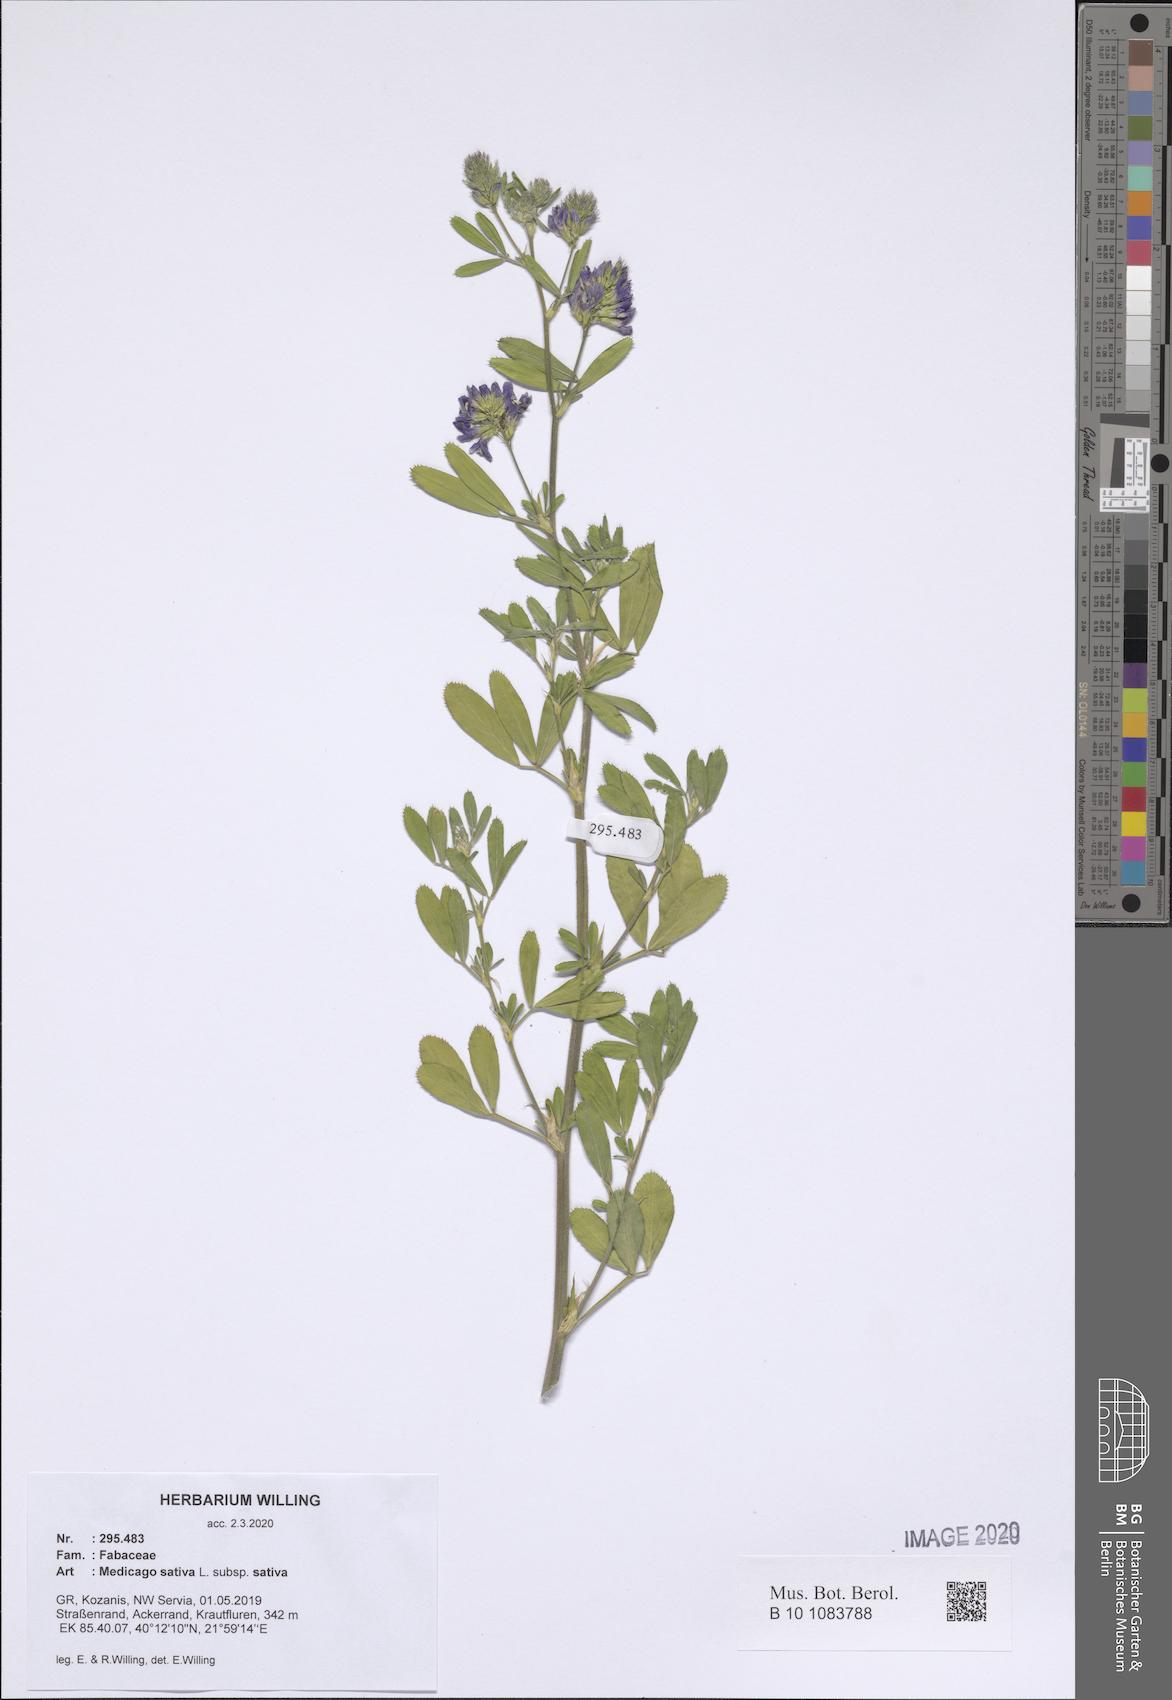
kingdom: Plantae
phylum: Tracheophyta
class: Magnoliopsida
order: Fabales
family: Fabaceae
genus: Medicago
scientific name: Medicago sativa
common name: Alfalfa
